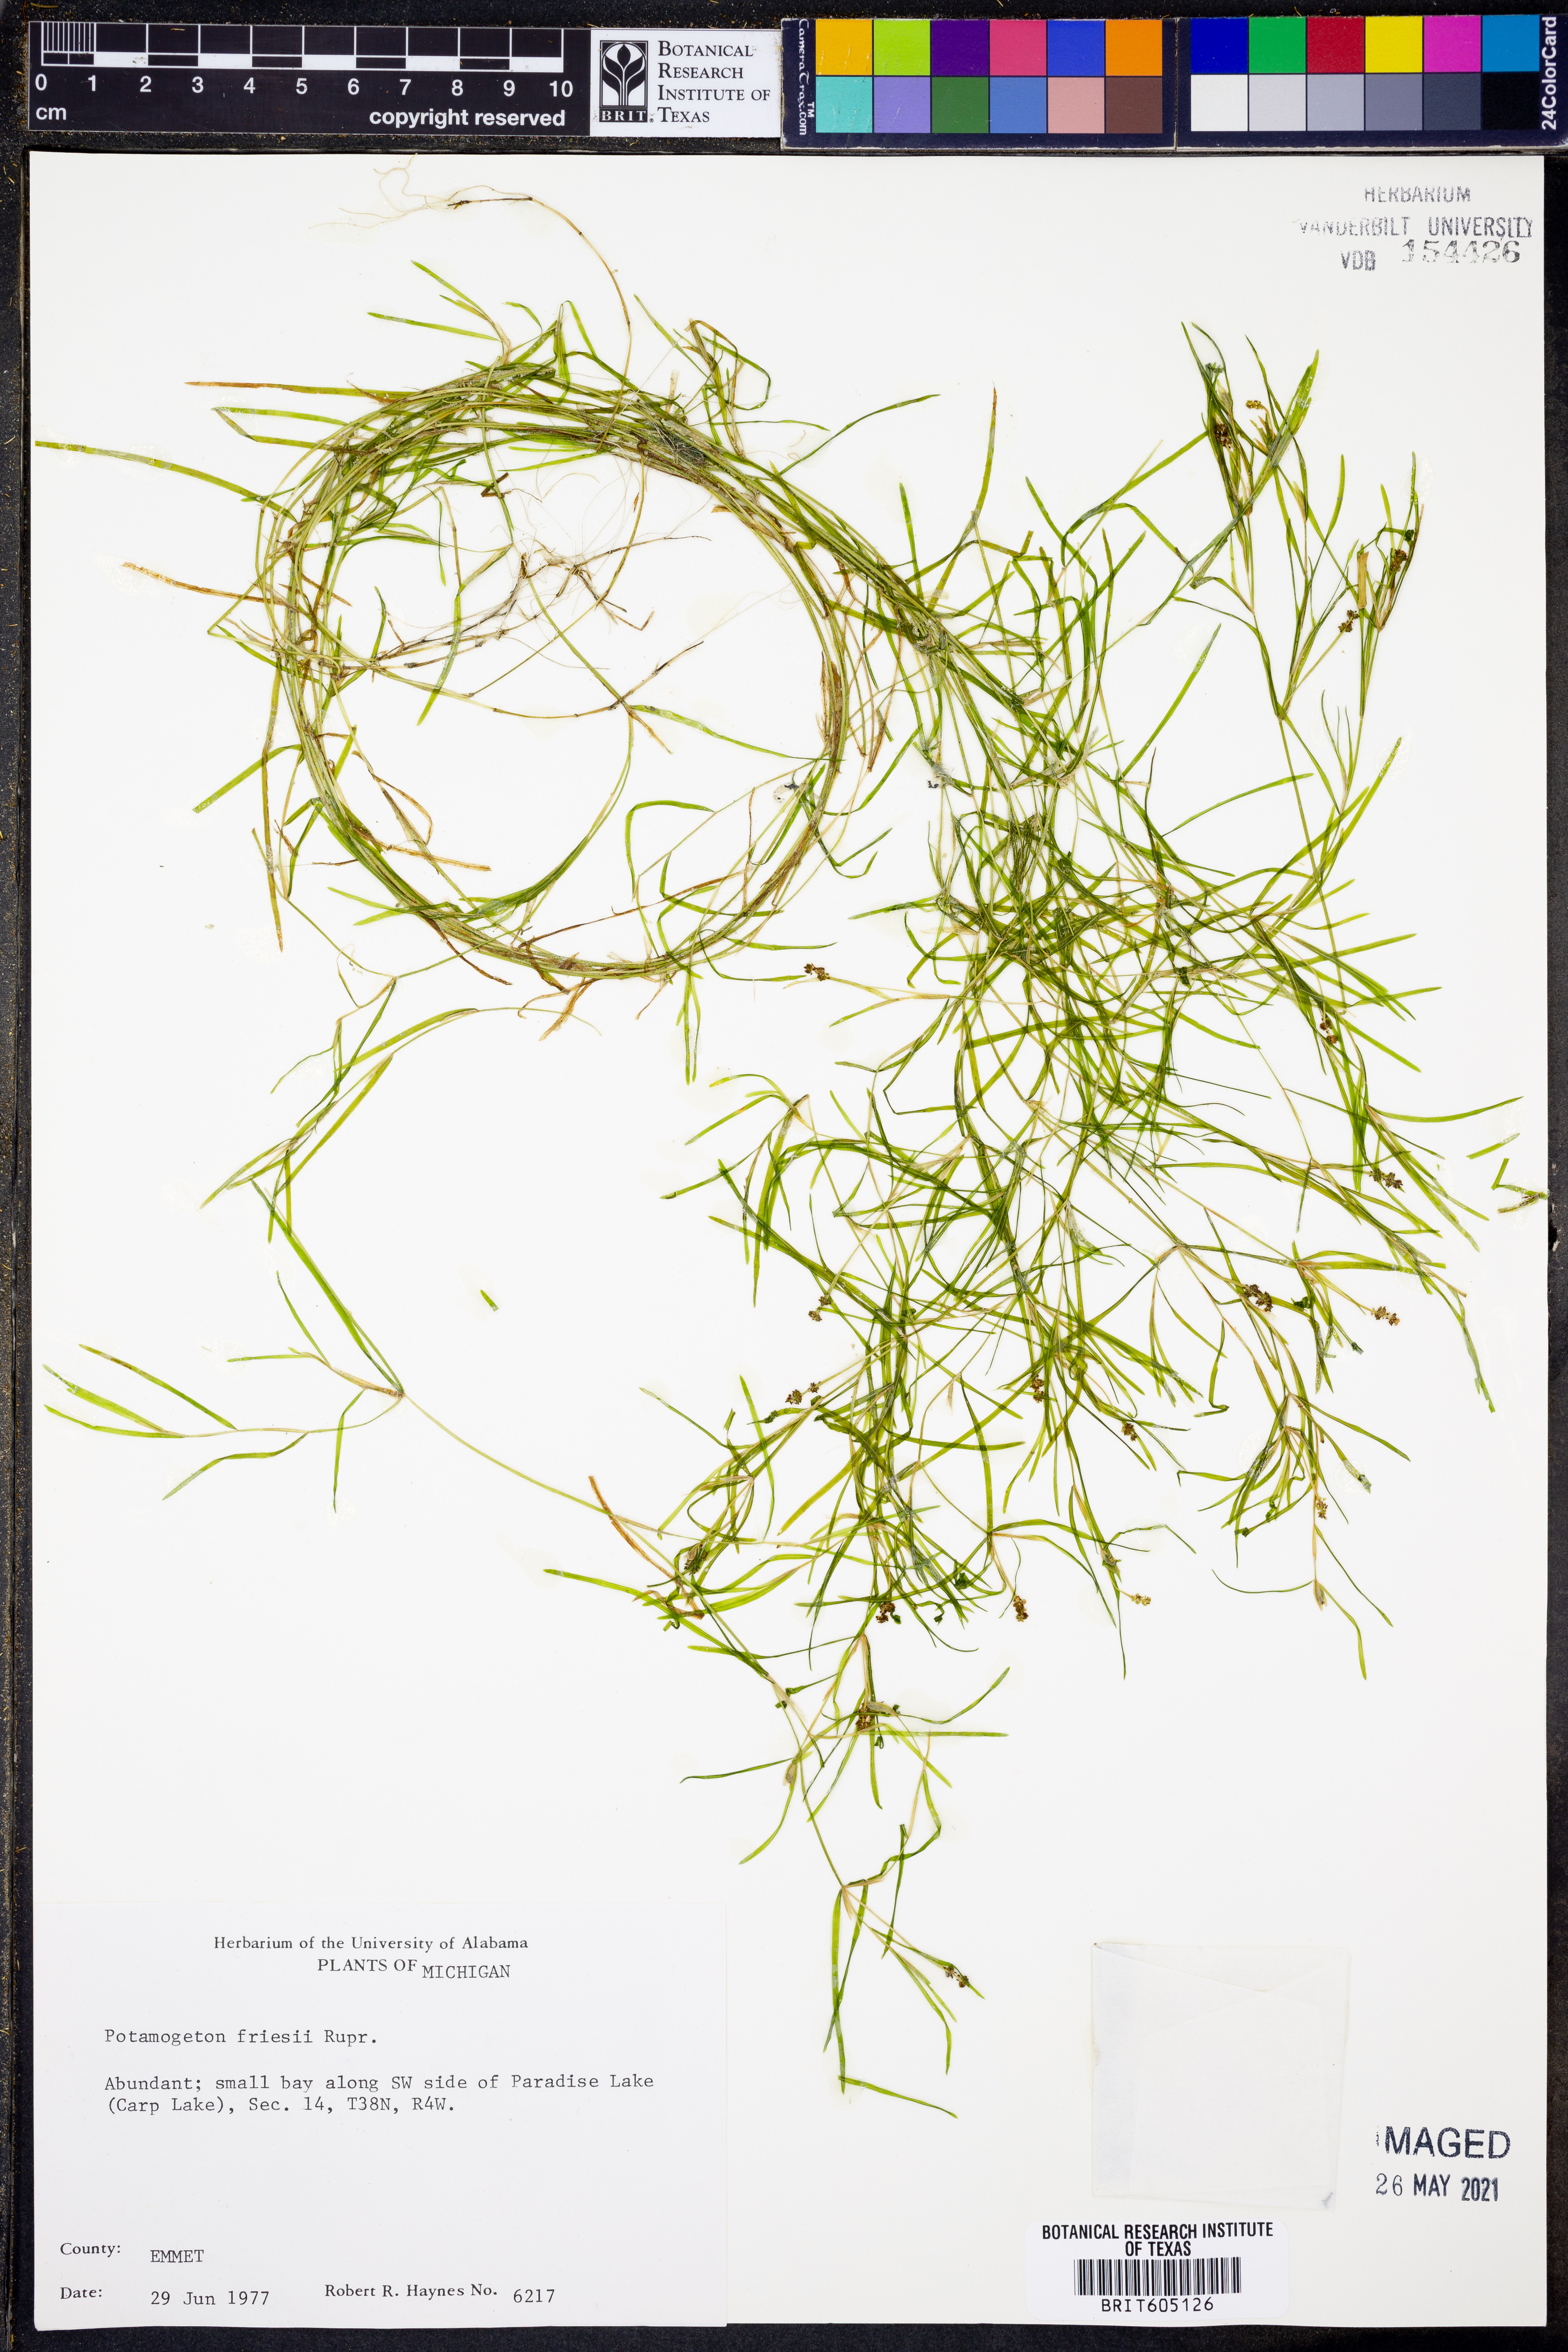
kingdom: Plantae
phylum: Tracheophyta
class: Liliopsida
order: Alismatales
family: Potamogetonaceae
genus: Potamogeton
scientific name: Potamogeton friesii
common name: Flat-stalked pondweed
